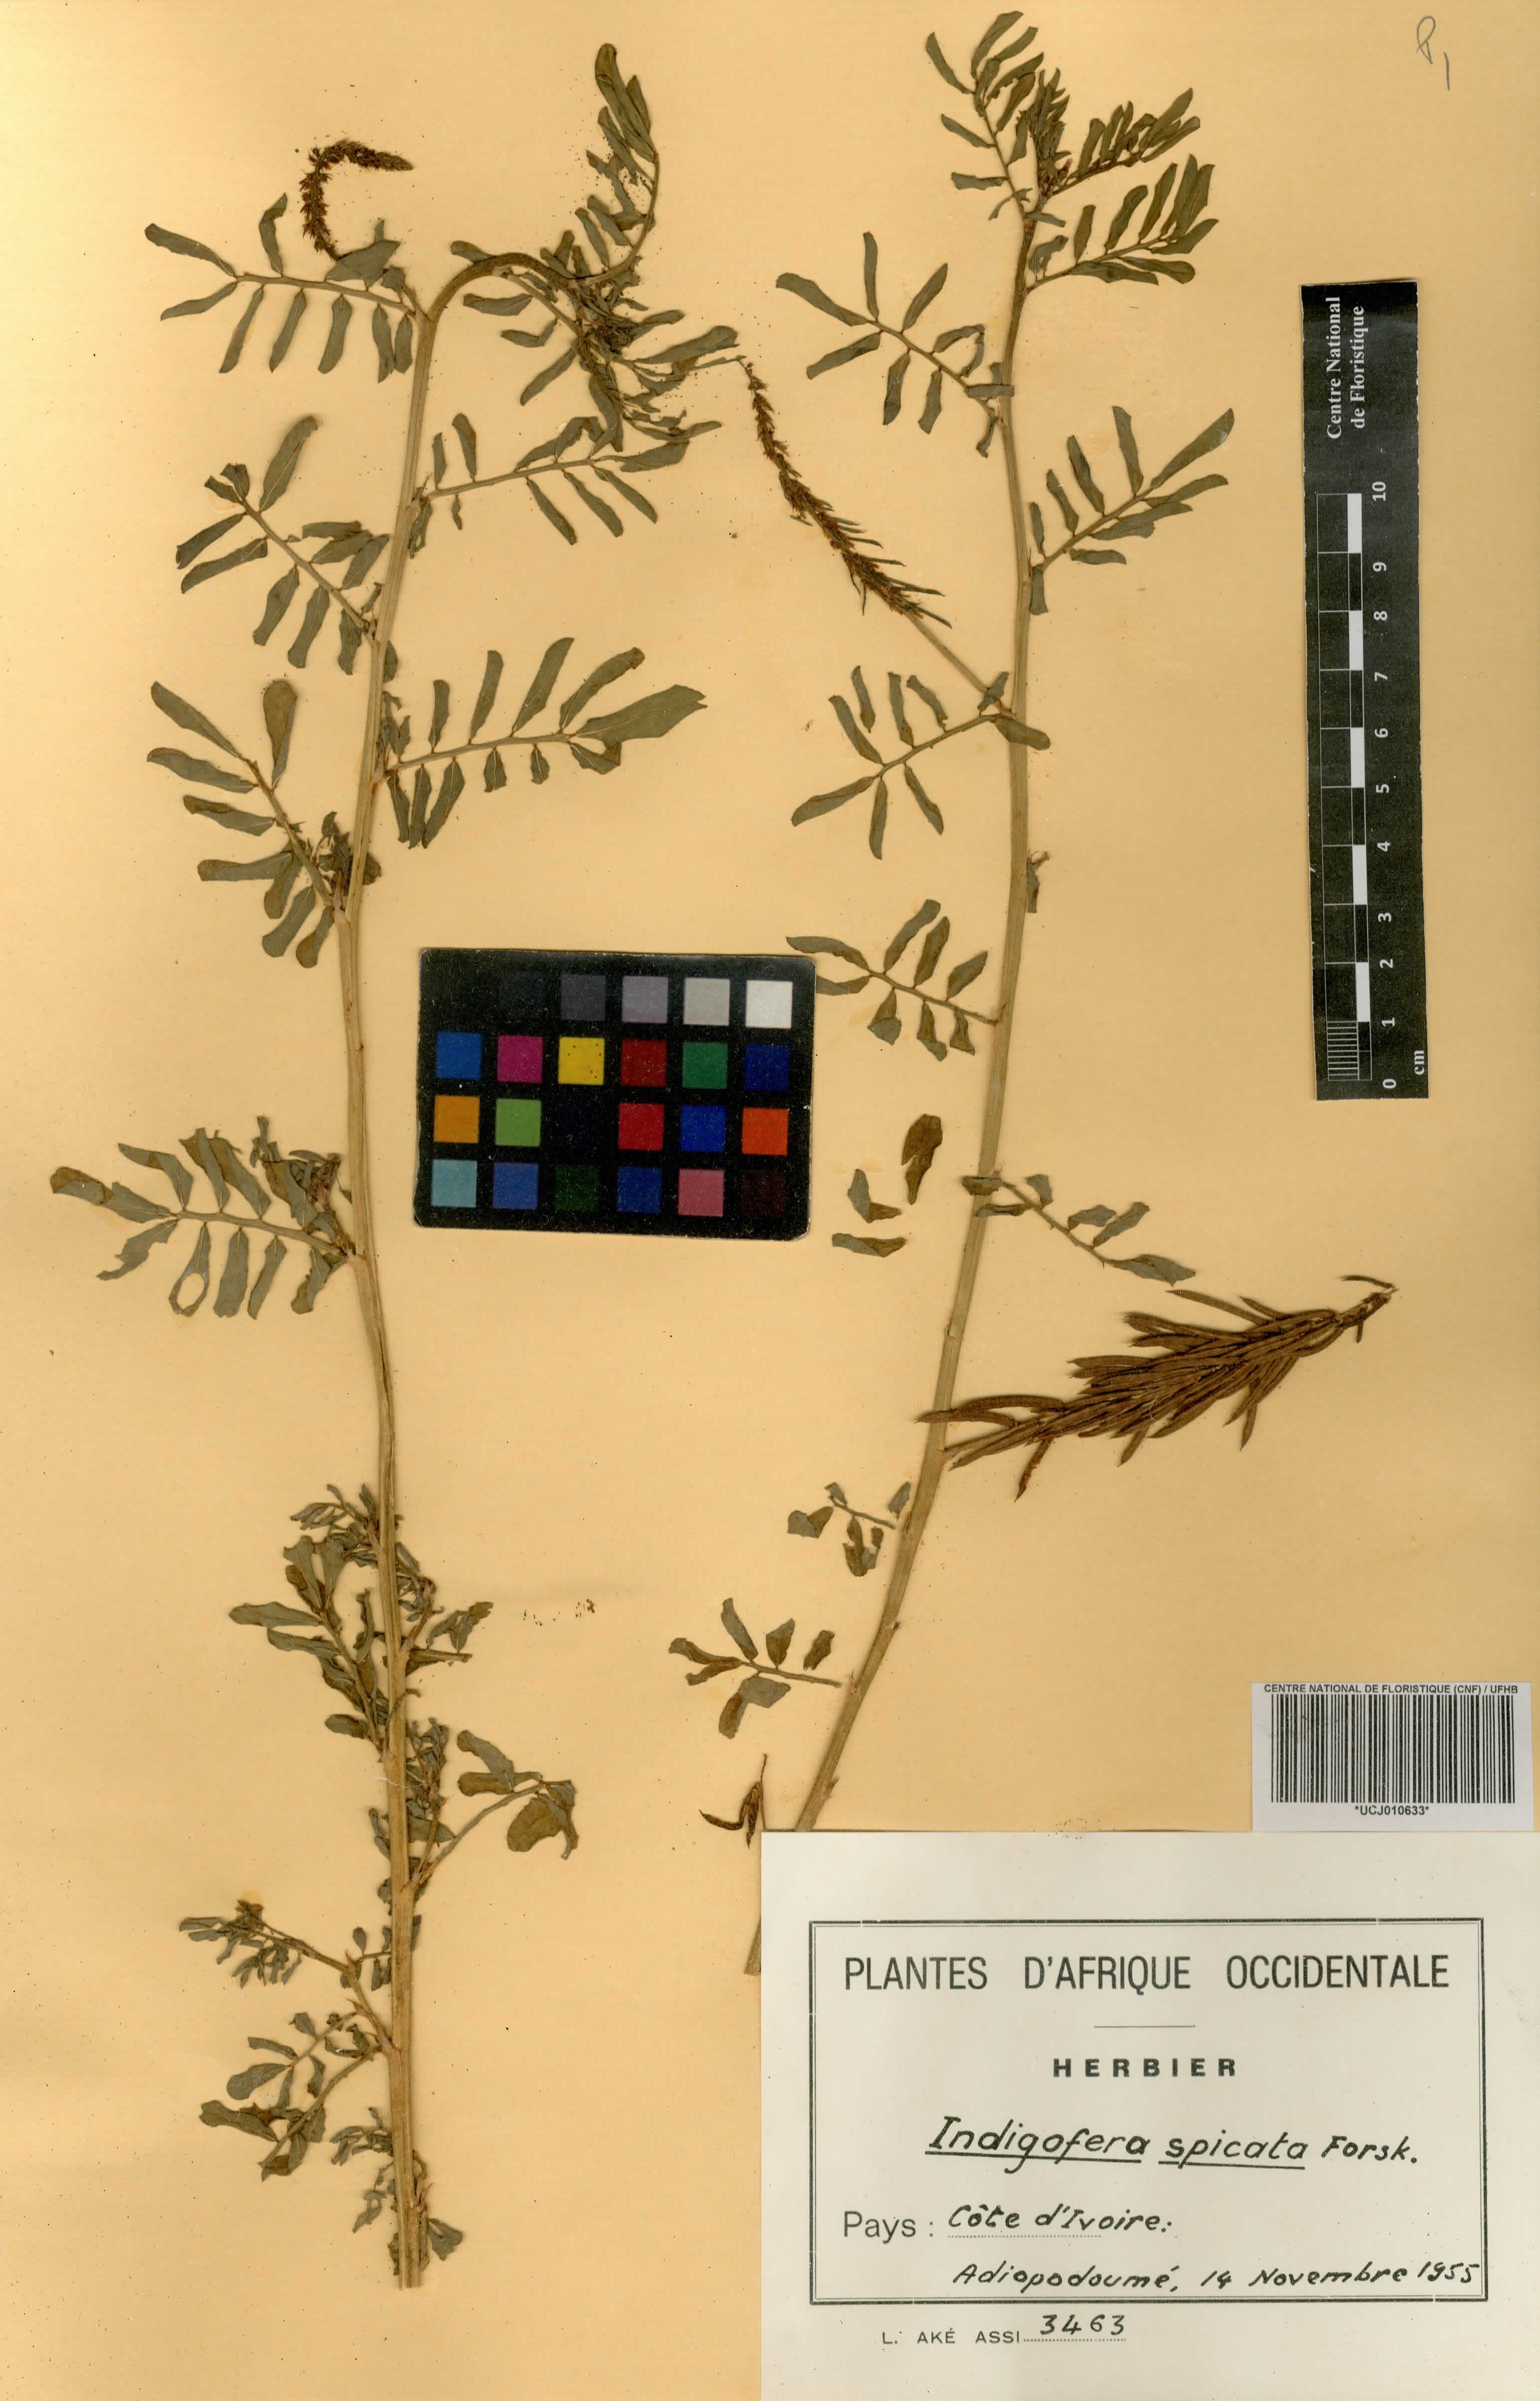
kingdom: Plantae
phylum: Tracheophyta
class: Magnoliopsida
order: Fabales
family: Fabaceae
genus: Indigofera
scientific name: Indigofera suffruticosa
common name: Anil de pasto
